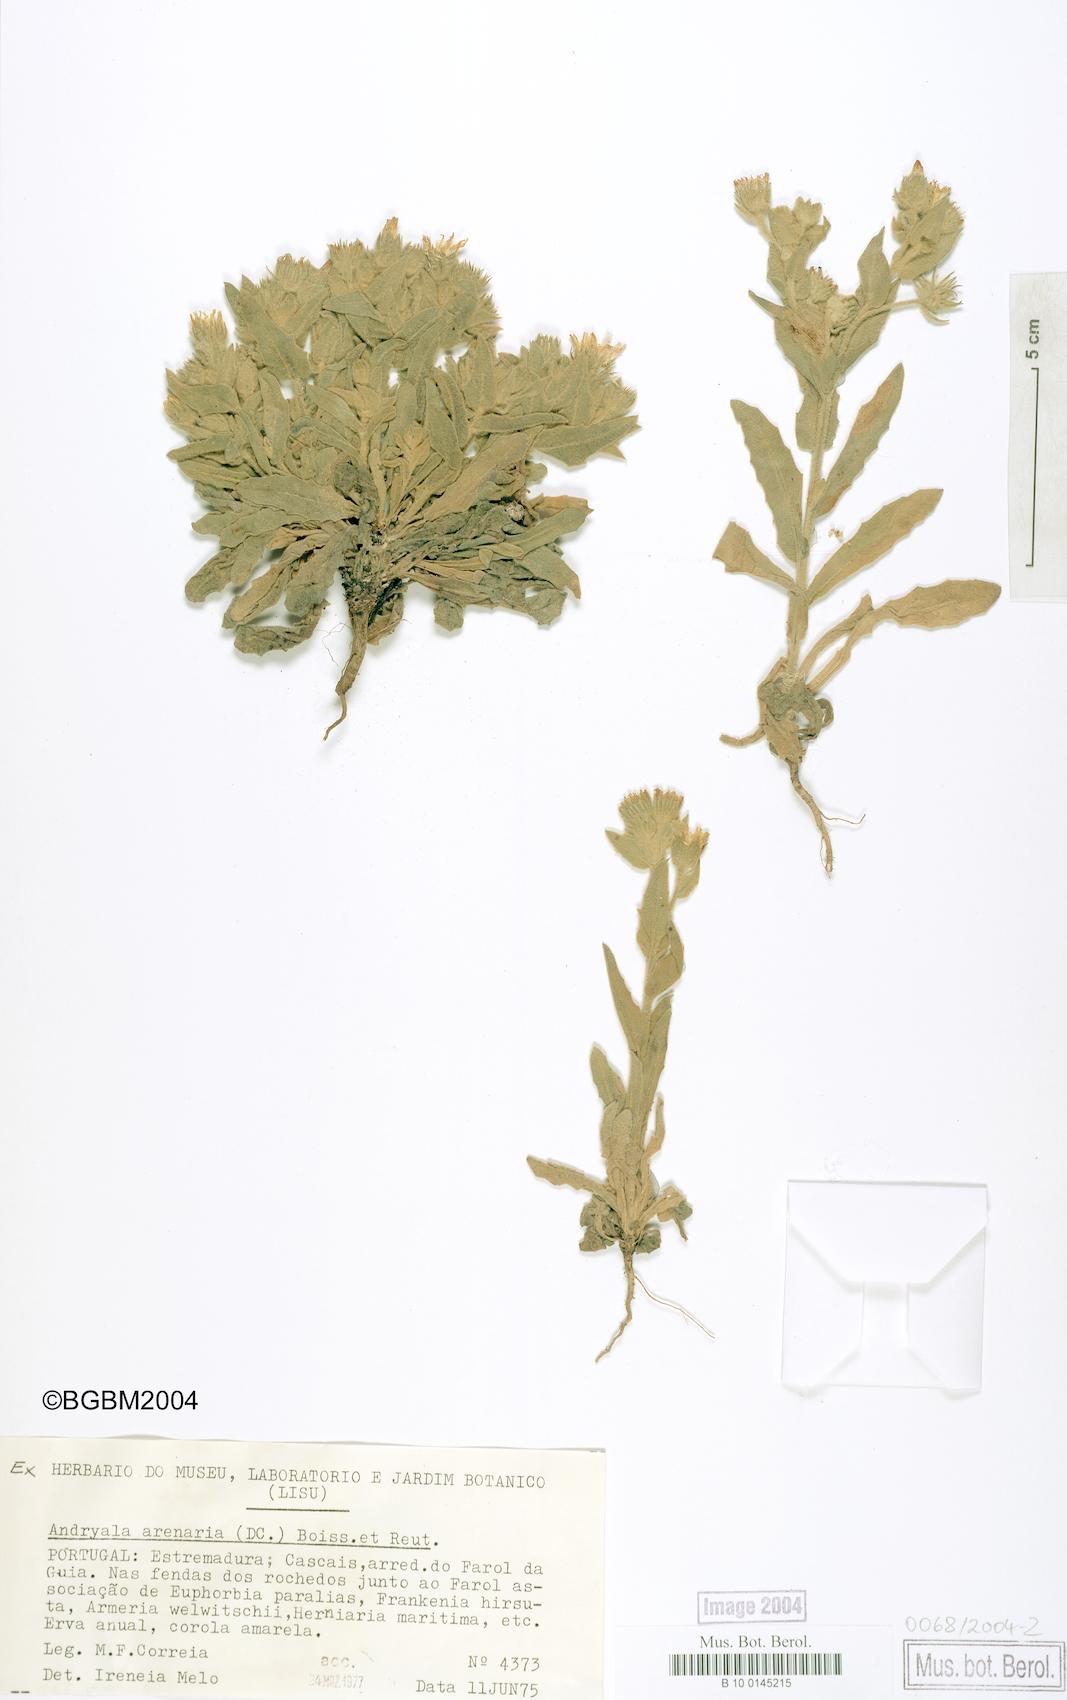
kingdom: Plantae
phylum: Tracheophyta
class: Magnoliopsida
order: Asterales
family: Asteraceae
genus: Andryala
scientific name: Andryala arenaria
